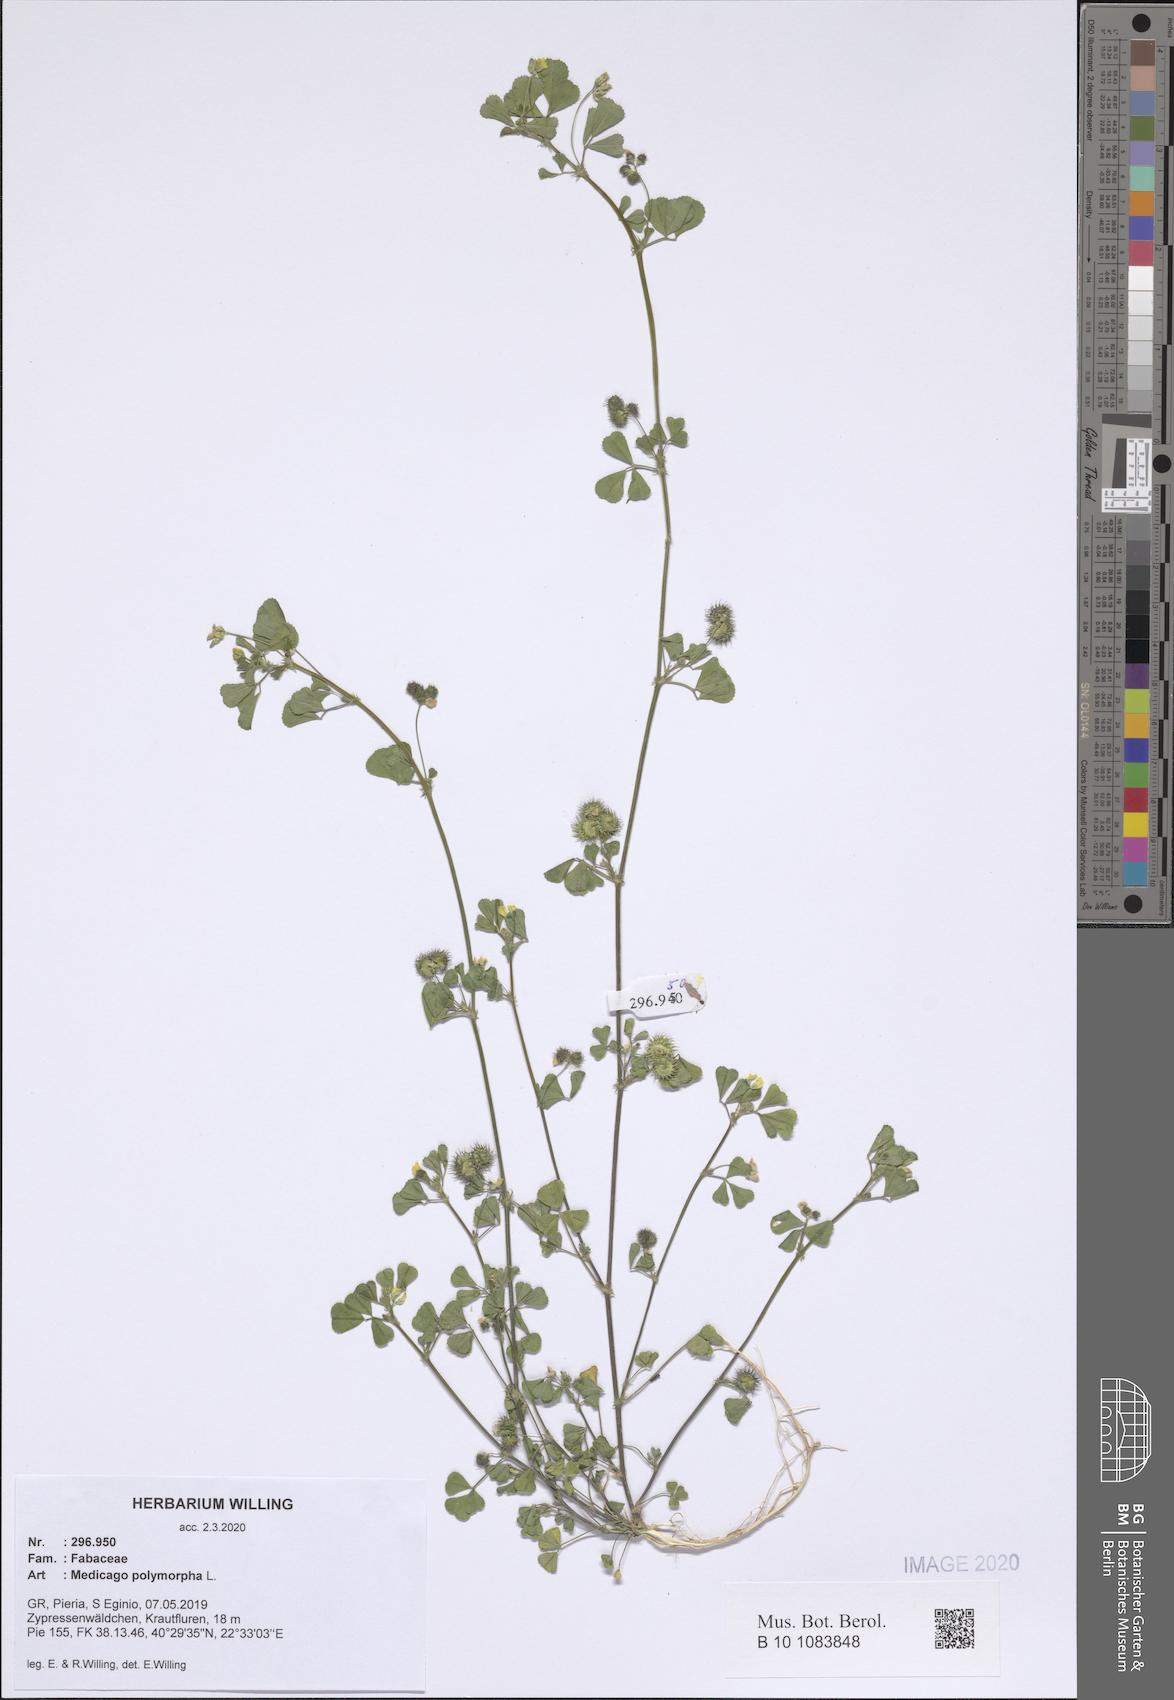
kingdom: Plantae
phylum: Tracheophyta
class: Magnoliopsida
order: Fabales
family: Fabaceae
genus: Medicago
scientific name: Medicago polymorpha
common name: Burclover
